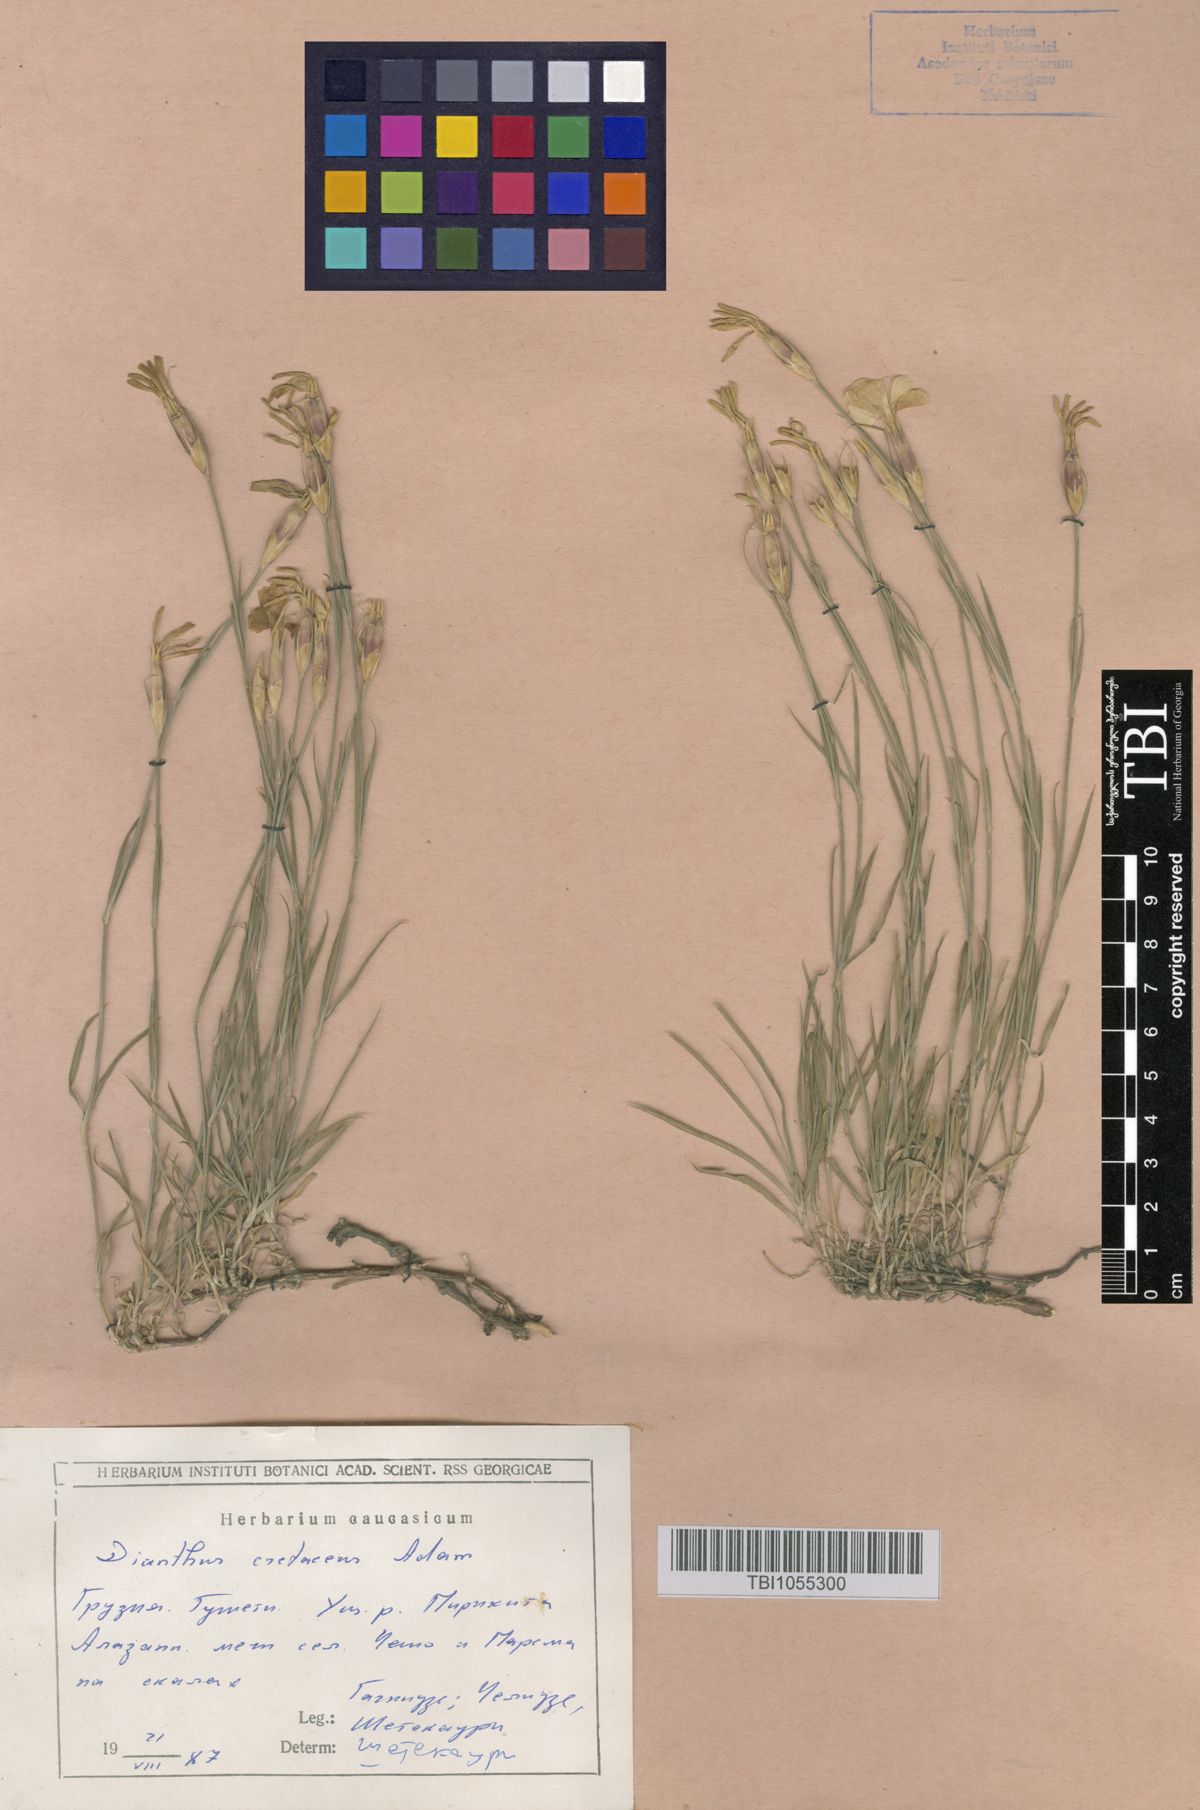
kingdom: Plantae
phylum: Tracheophyta
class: Magnoliopsida
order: Caryophyllales
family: Caryophyllaceae
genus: Dianthus
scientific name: Dianthus cretaceus
